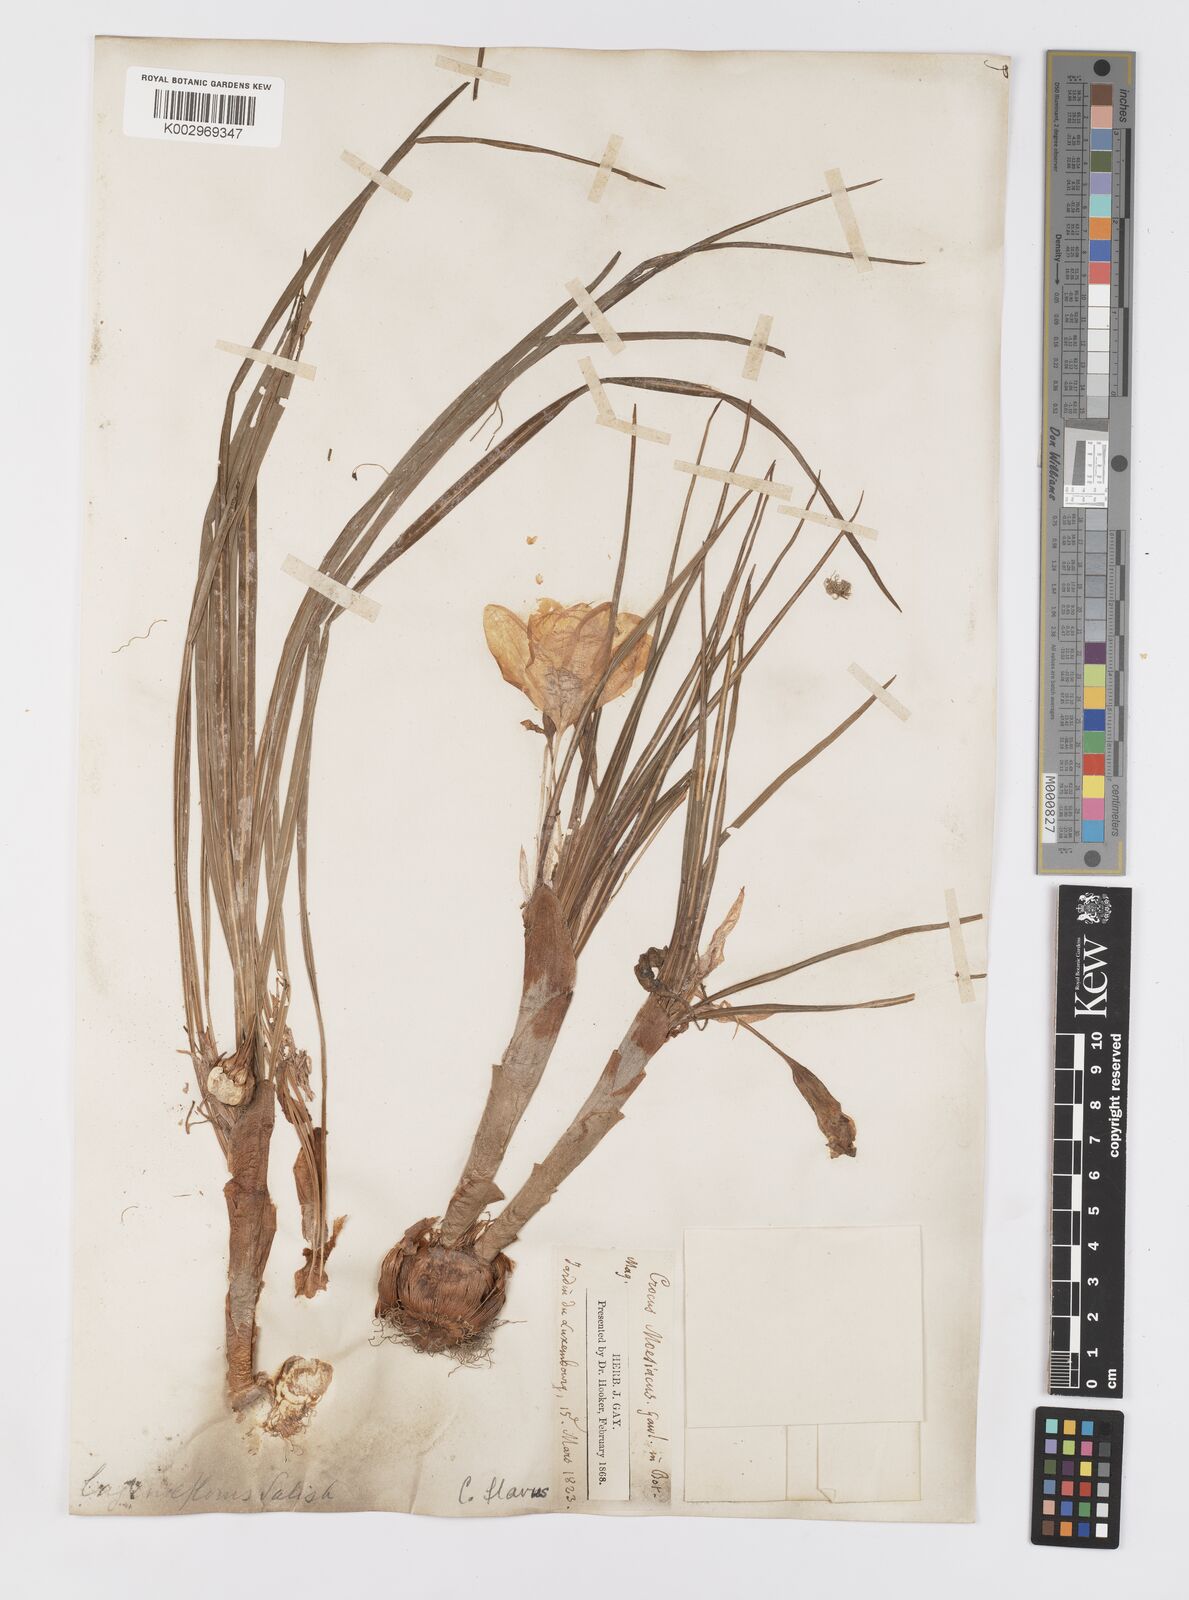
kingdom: Plantae
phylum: Tracheophyta
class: Liliopsida
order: Asparagales
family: Iridaceae
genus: Crocus
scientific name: Crocus flavus
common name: Yellow crocus
